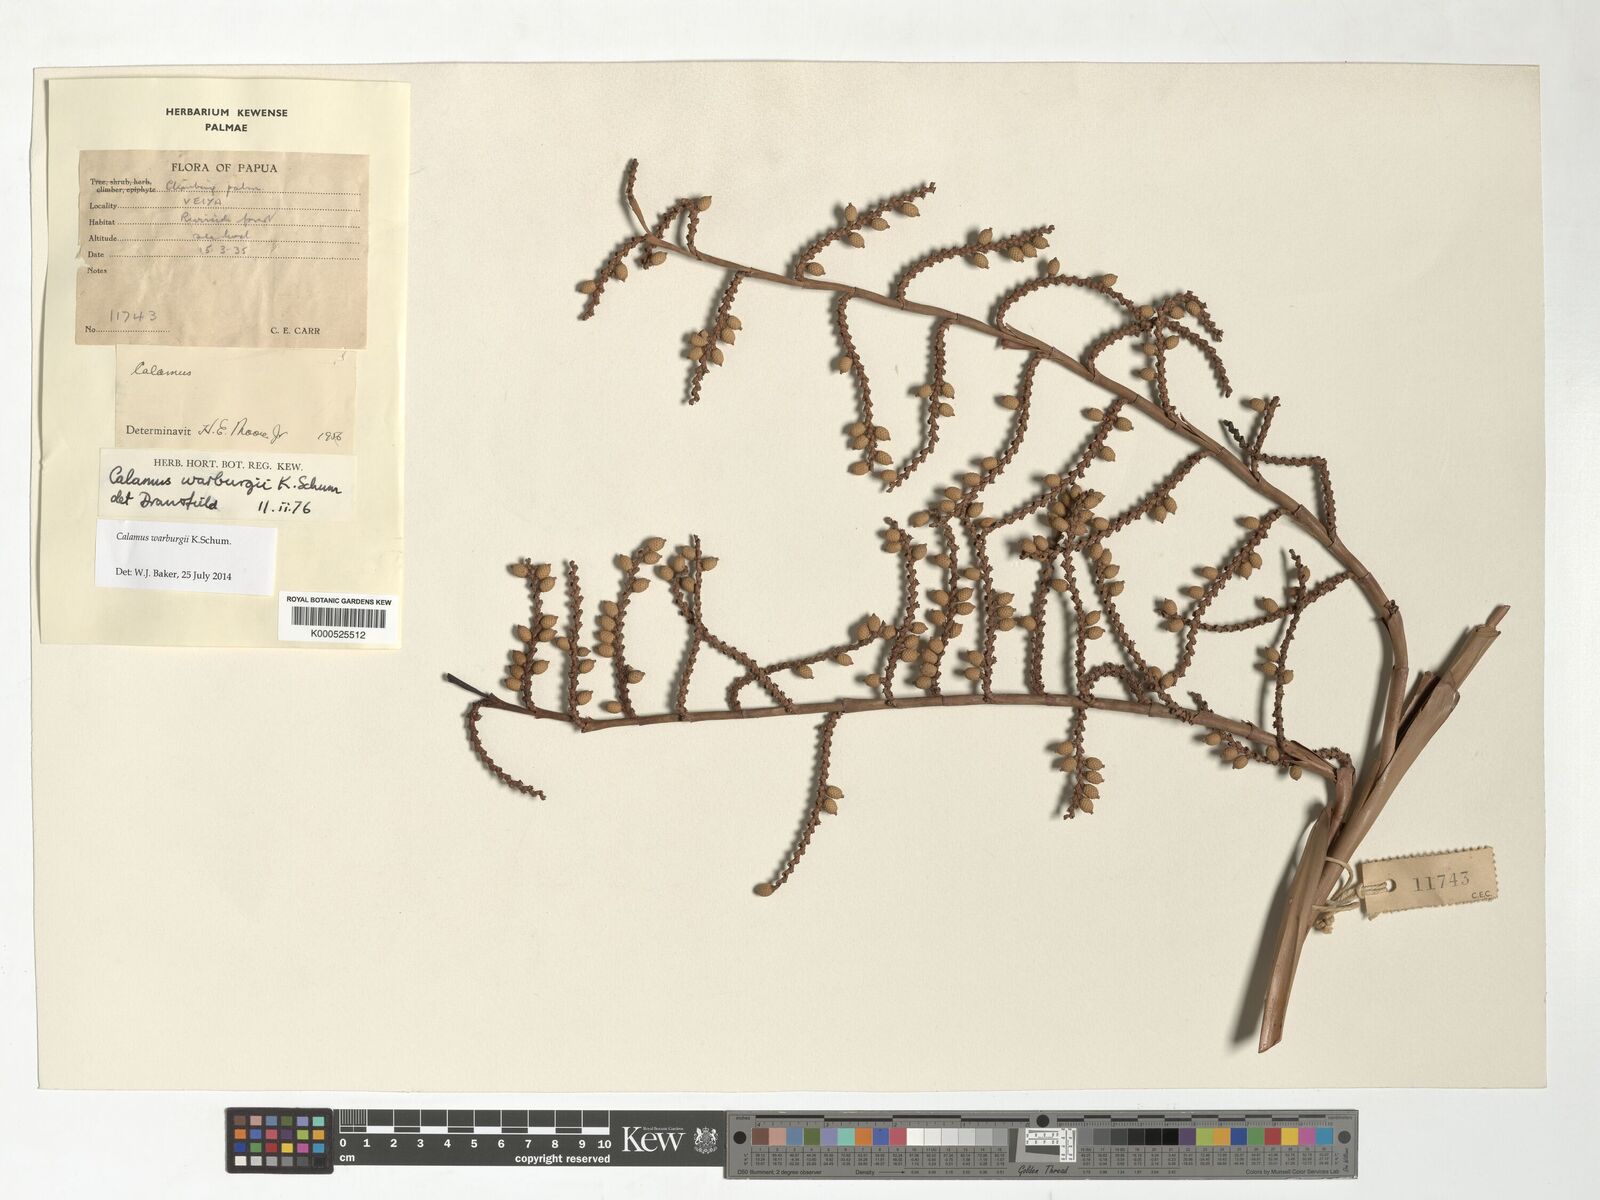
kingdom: Plantae
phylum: Tracheophyta
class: Liliopsida
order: Arecales
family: Arecaceae
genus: Calamus
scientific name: Calamus warburgii
